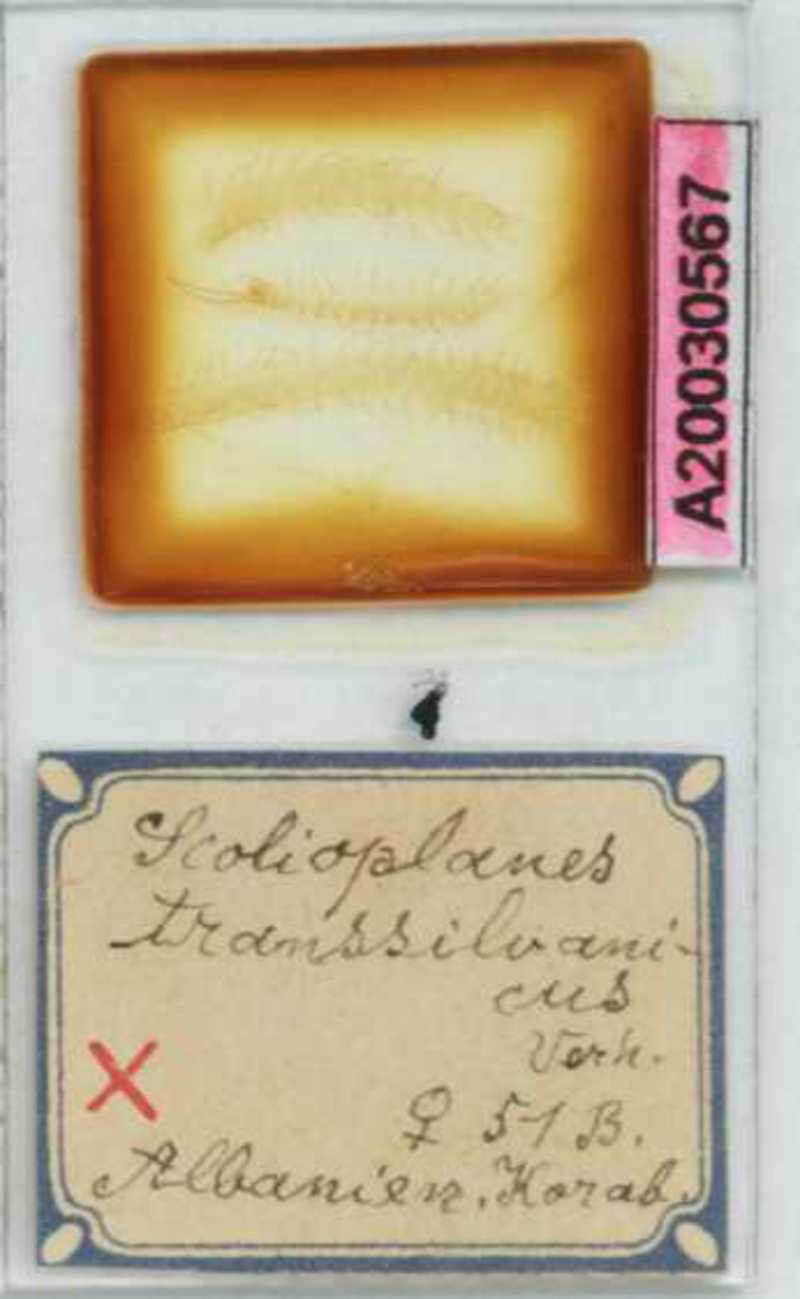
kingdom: Animalia
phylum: Arthropoda
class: Chilopoda
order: Geophilomorpha
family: Linotaeniidae
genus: Strigamia
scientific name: Strigamia transsilvanica
